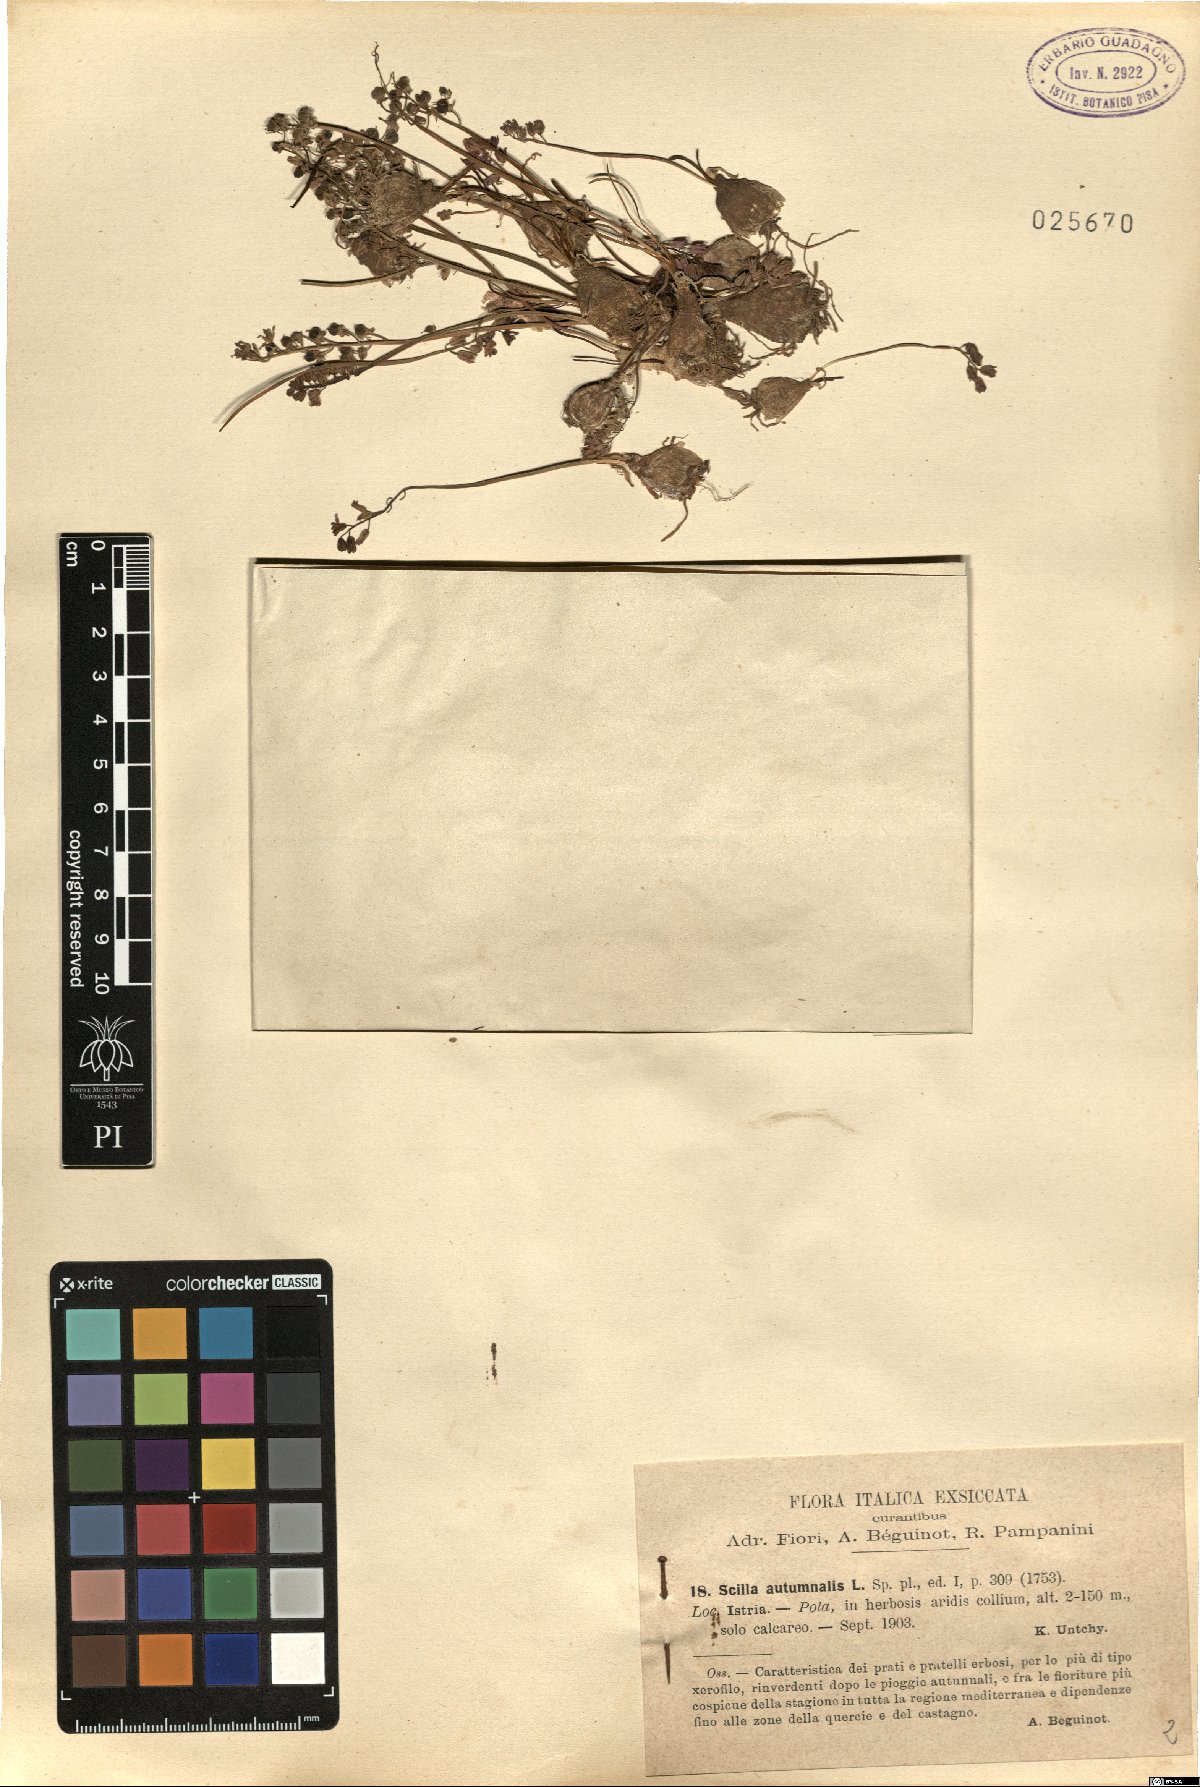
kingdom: Plantae
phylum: Tracheophyta
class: Liliopsida
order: Asparagales
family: Asparagaceae
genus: Prospero
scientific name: Prospero autumnale
